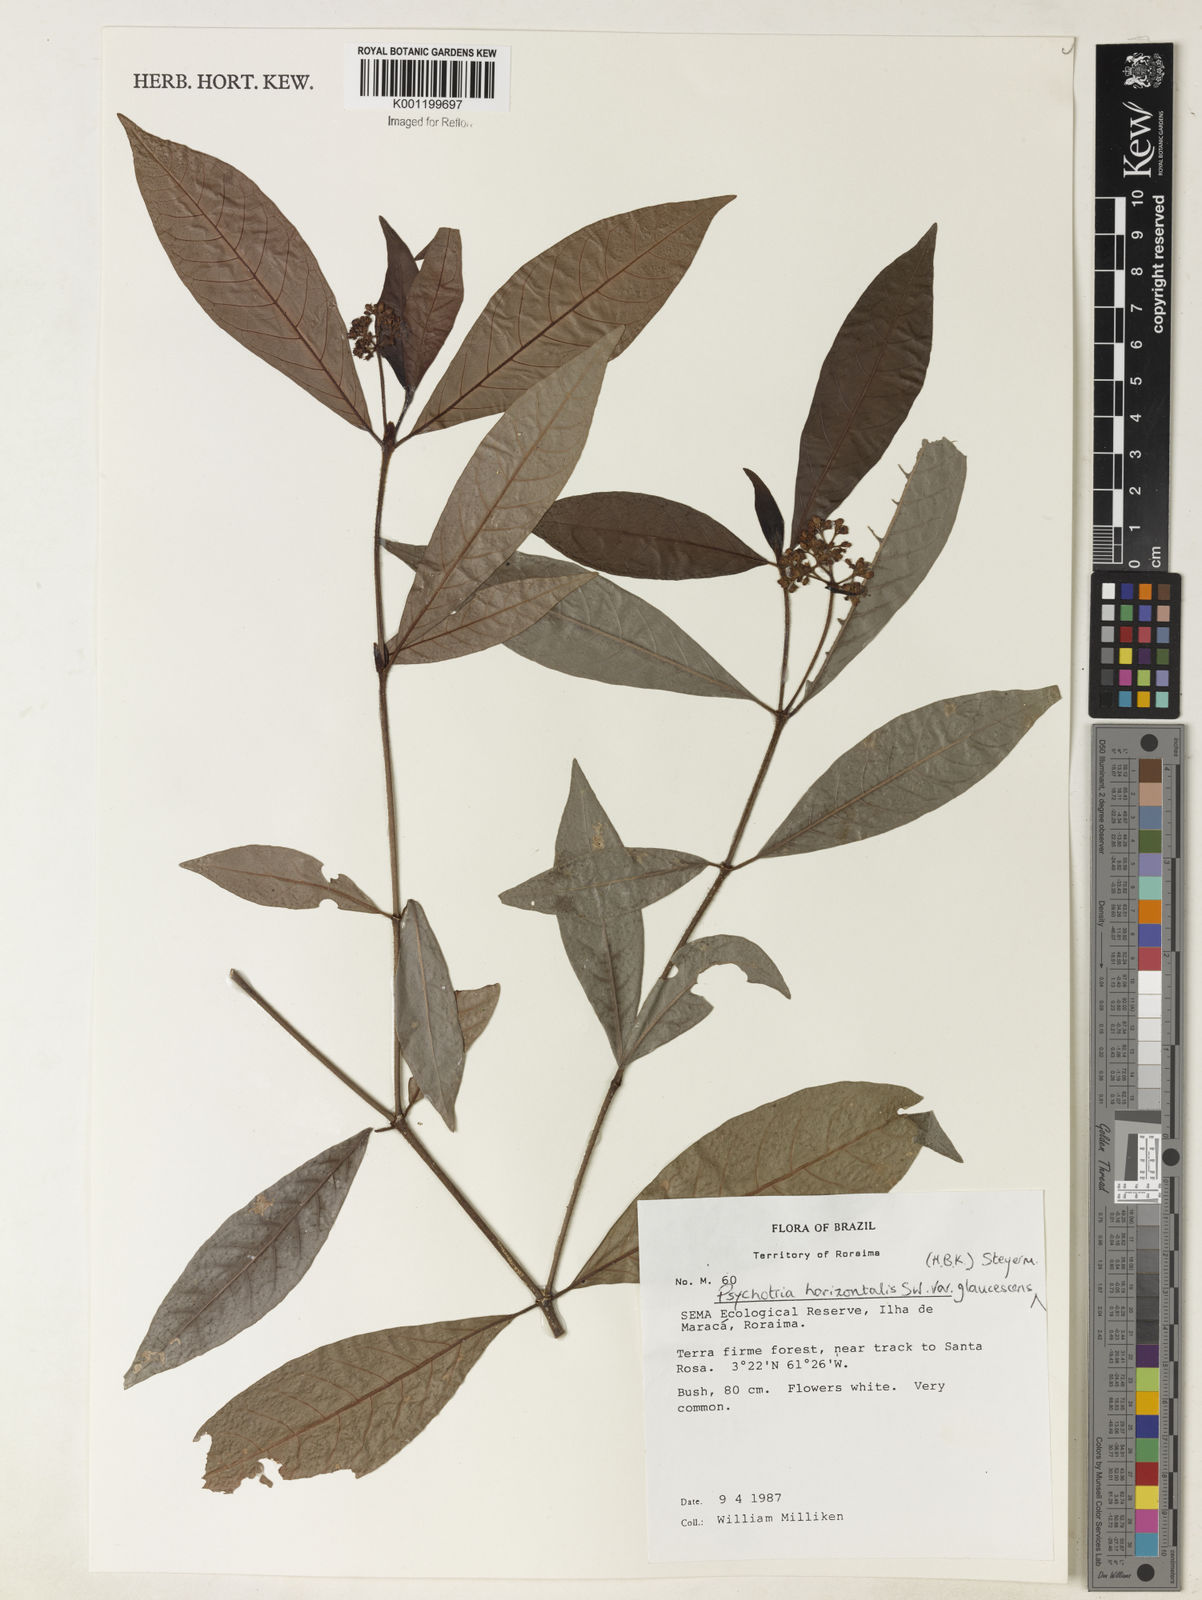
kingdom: Plantae
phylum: Tracheophyta
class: Magnoliopsida
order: Gentianales
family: Rubiaceae
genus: Psychotria
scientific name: Psychotria horizontalis
